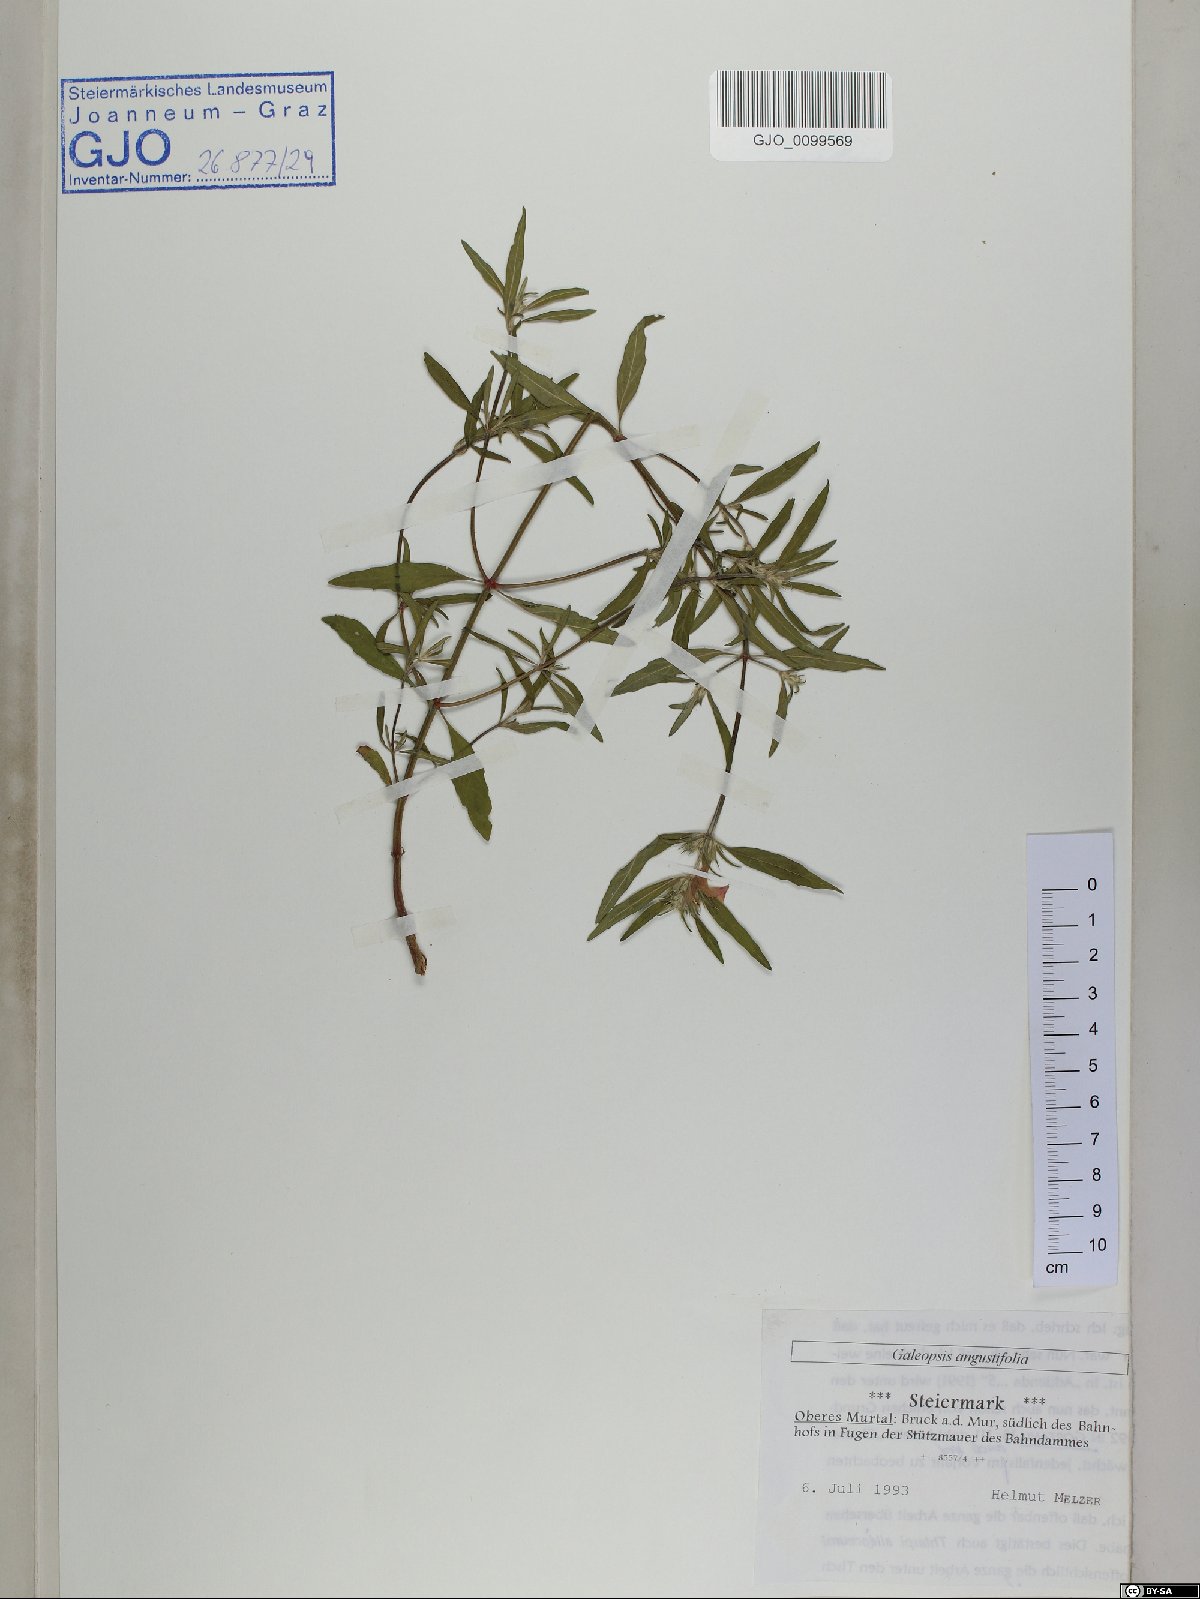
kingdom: Plantae
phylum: Tracheophyta
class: Magnoliopsida
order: Lamiales
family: Lamiaceae
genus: Galeopsis
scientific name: Galeopsis angustifolia
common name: Red hemp-nettle
